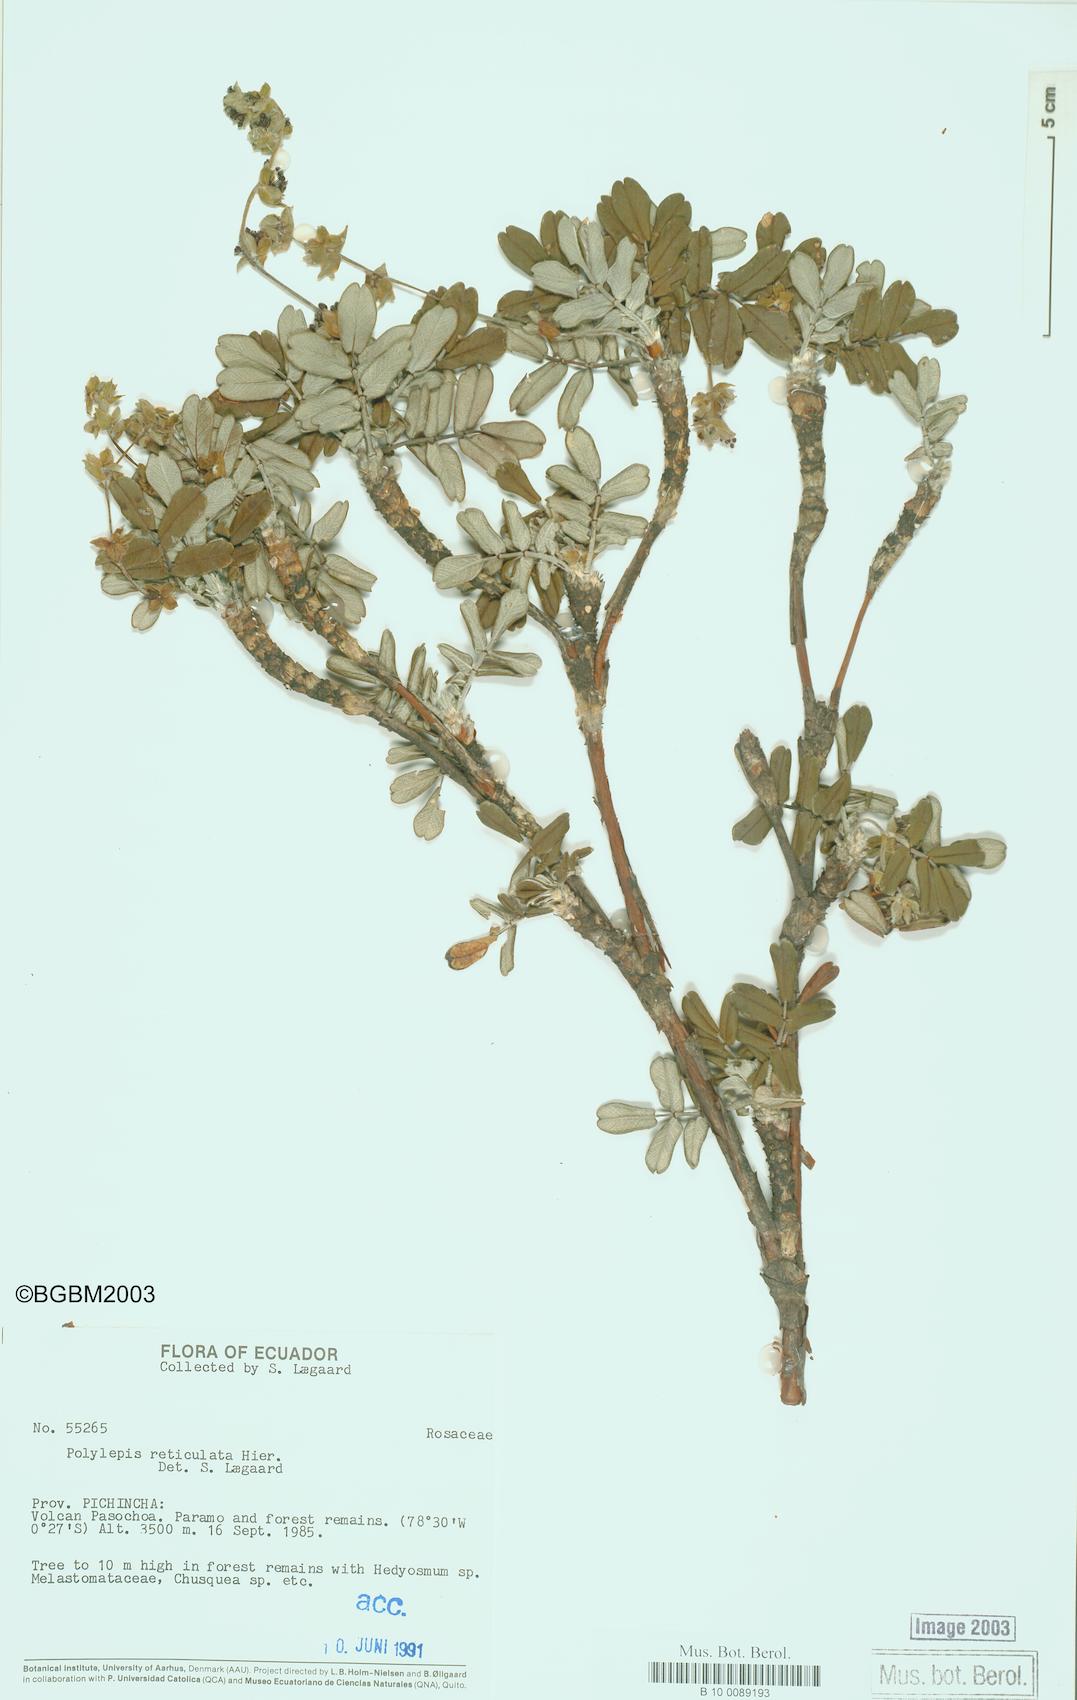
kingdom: Plantae
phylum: Tracheophyta
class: Magnoliopsida
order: Rosales
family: Rosaceae
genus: Polylepis
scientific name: Polylepis reticulata
